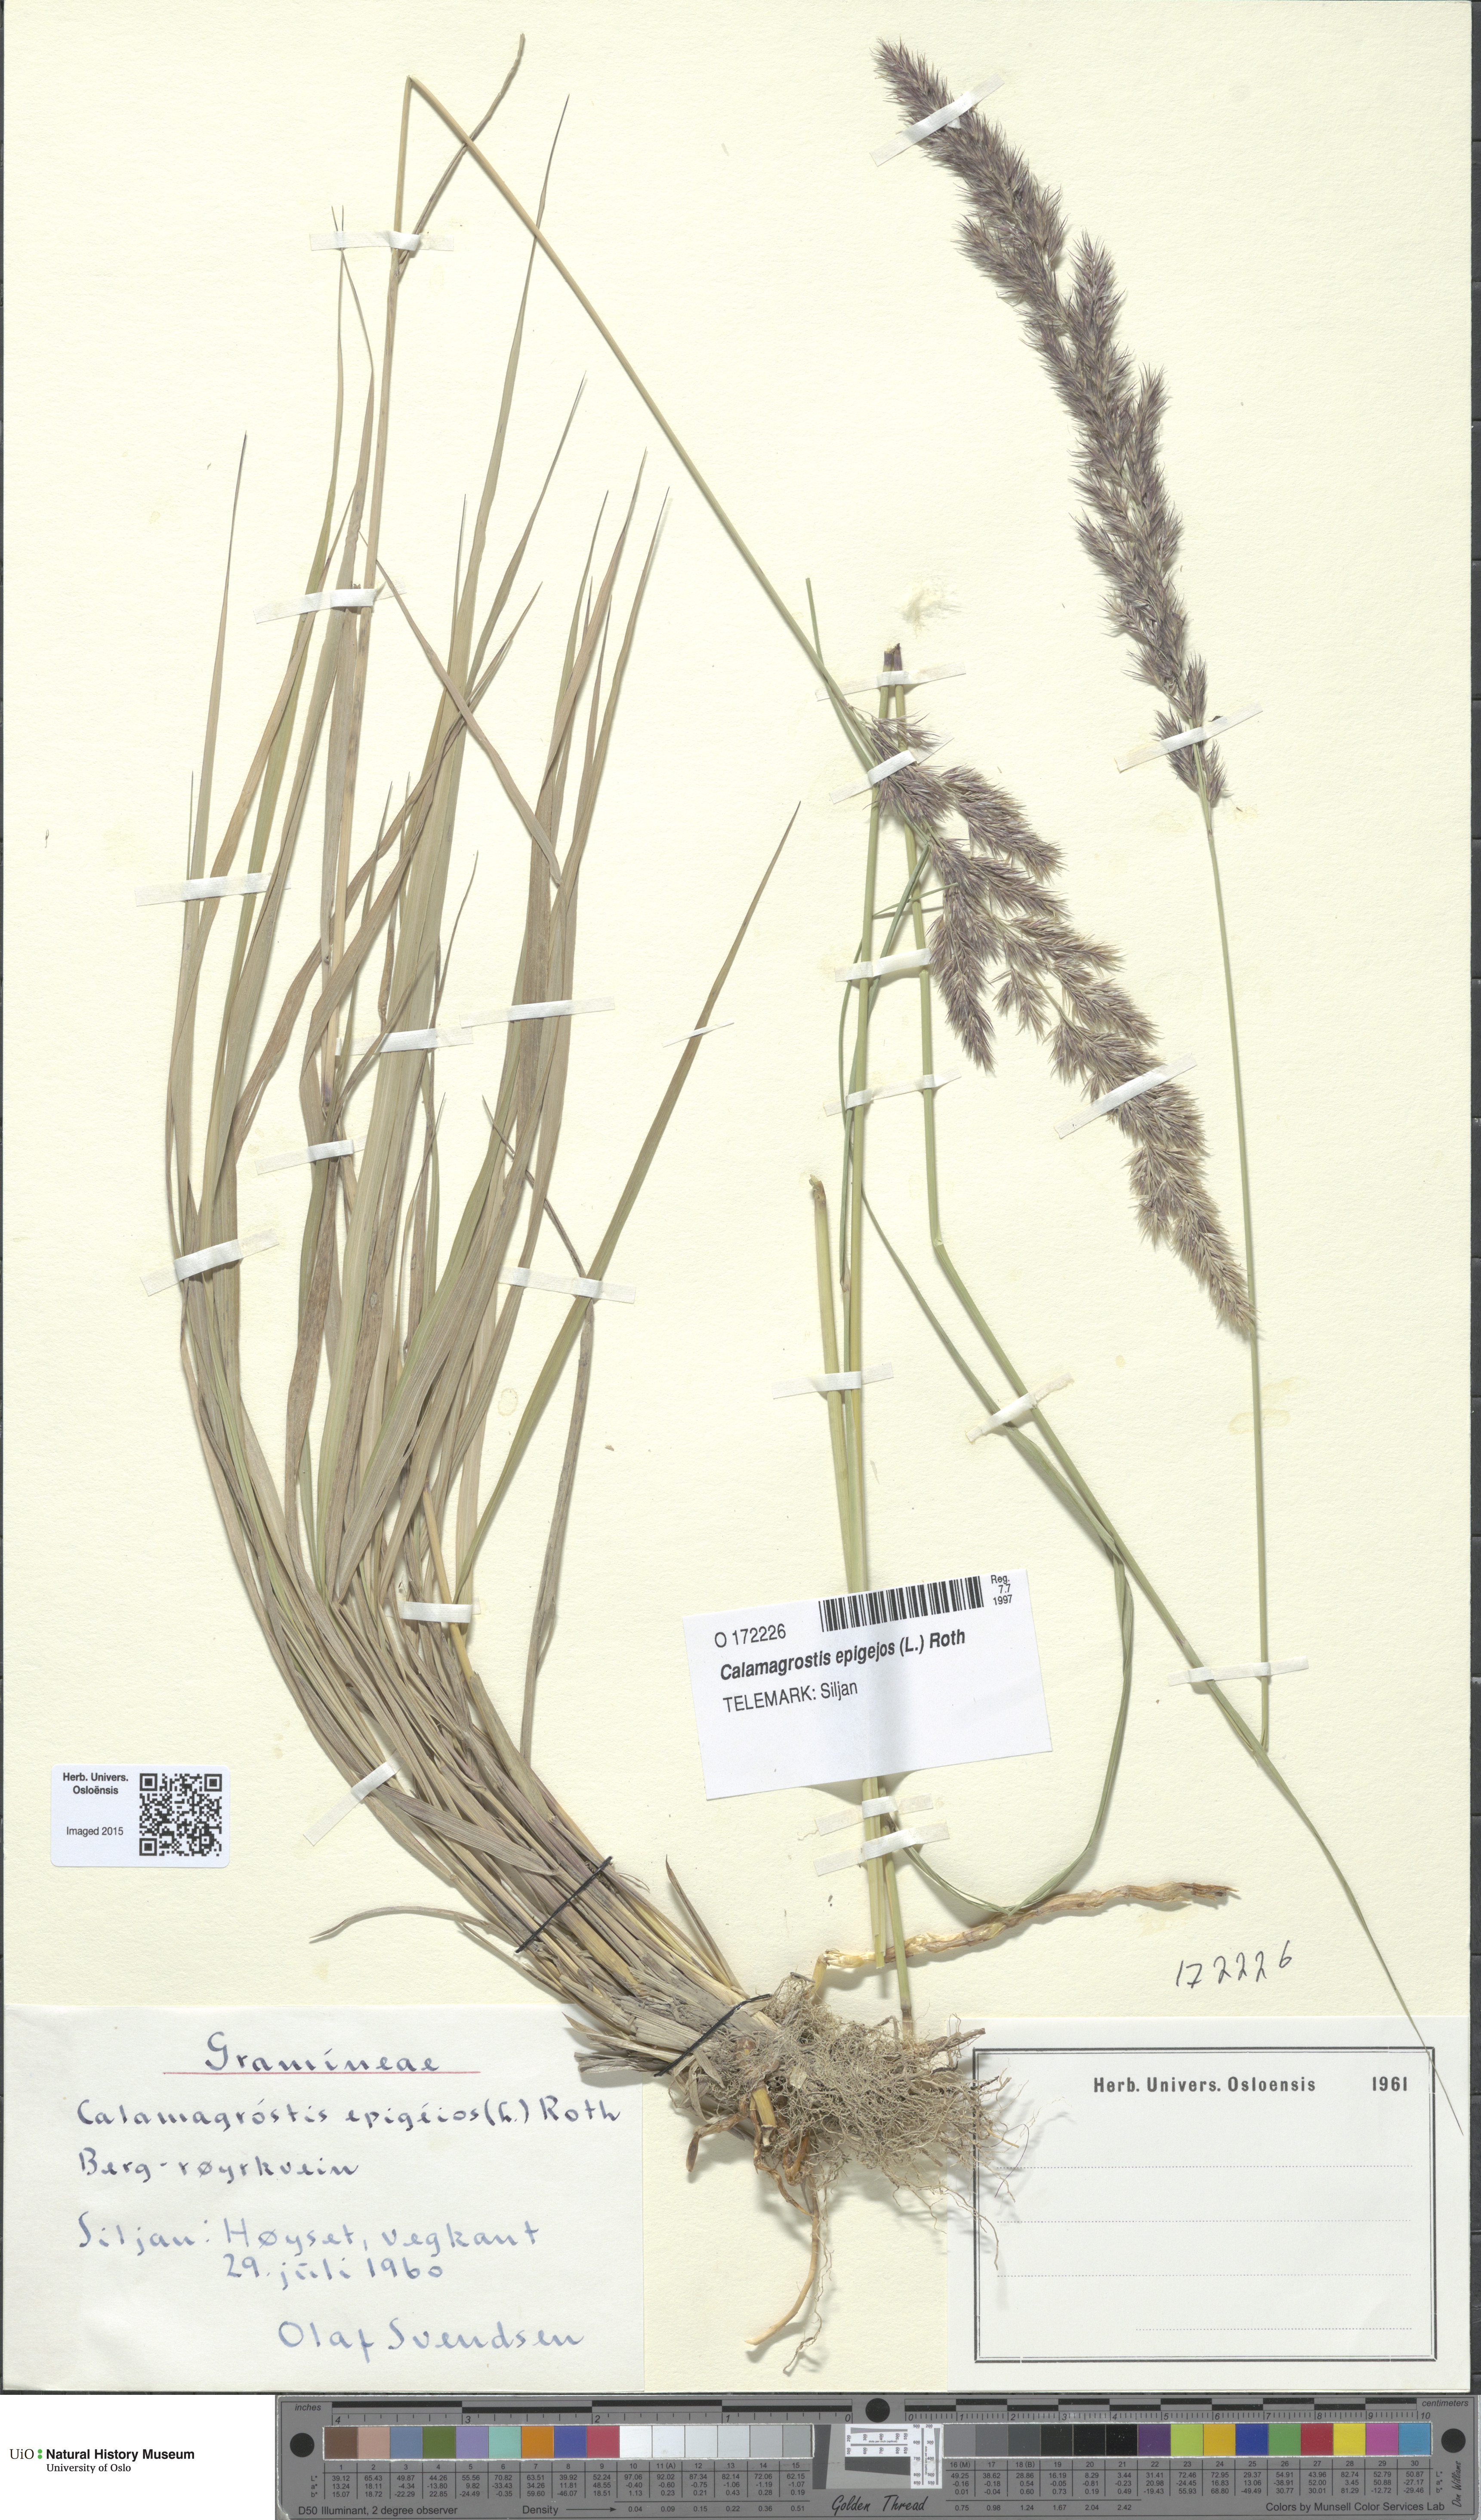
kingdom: Plantae
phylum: Tracheophyta
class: Liliopsida
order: Poales
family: Poaceae
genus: Calamagrostis
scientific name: Calamagrostis epigejos
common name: Wood small-reed
